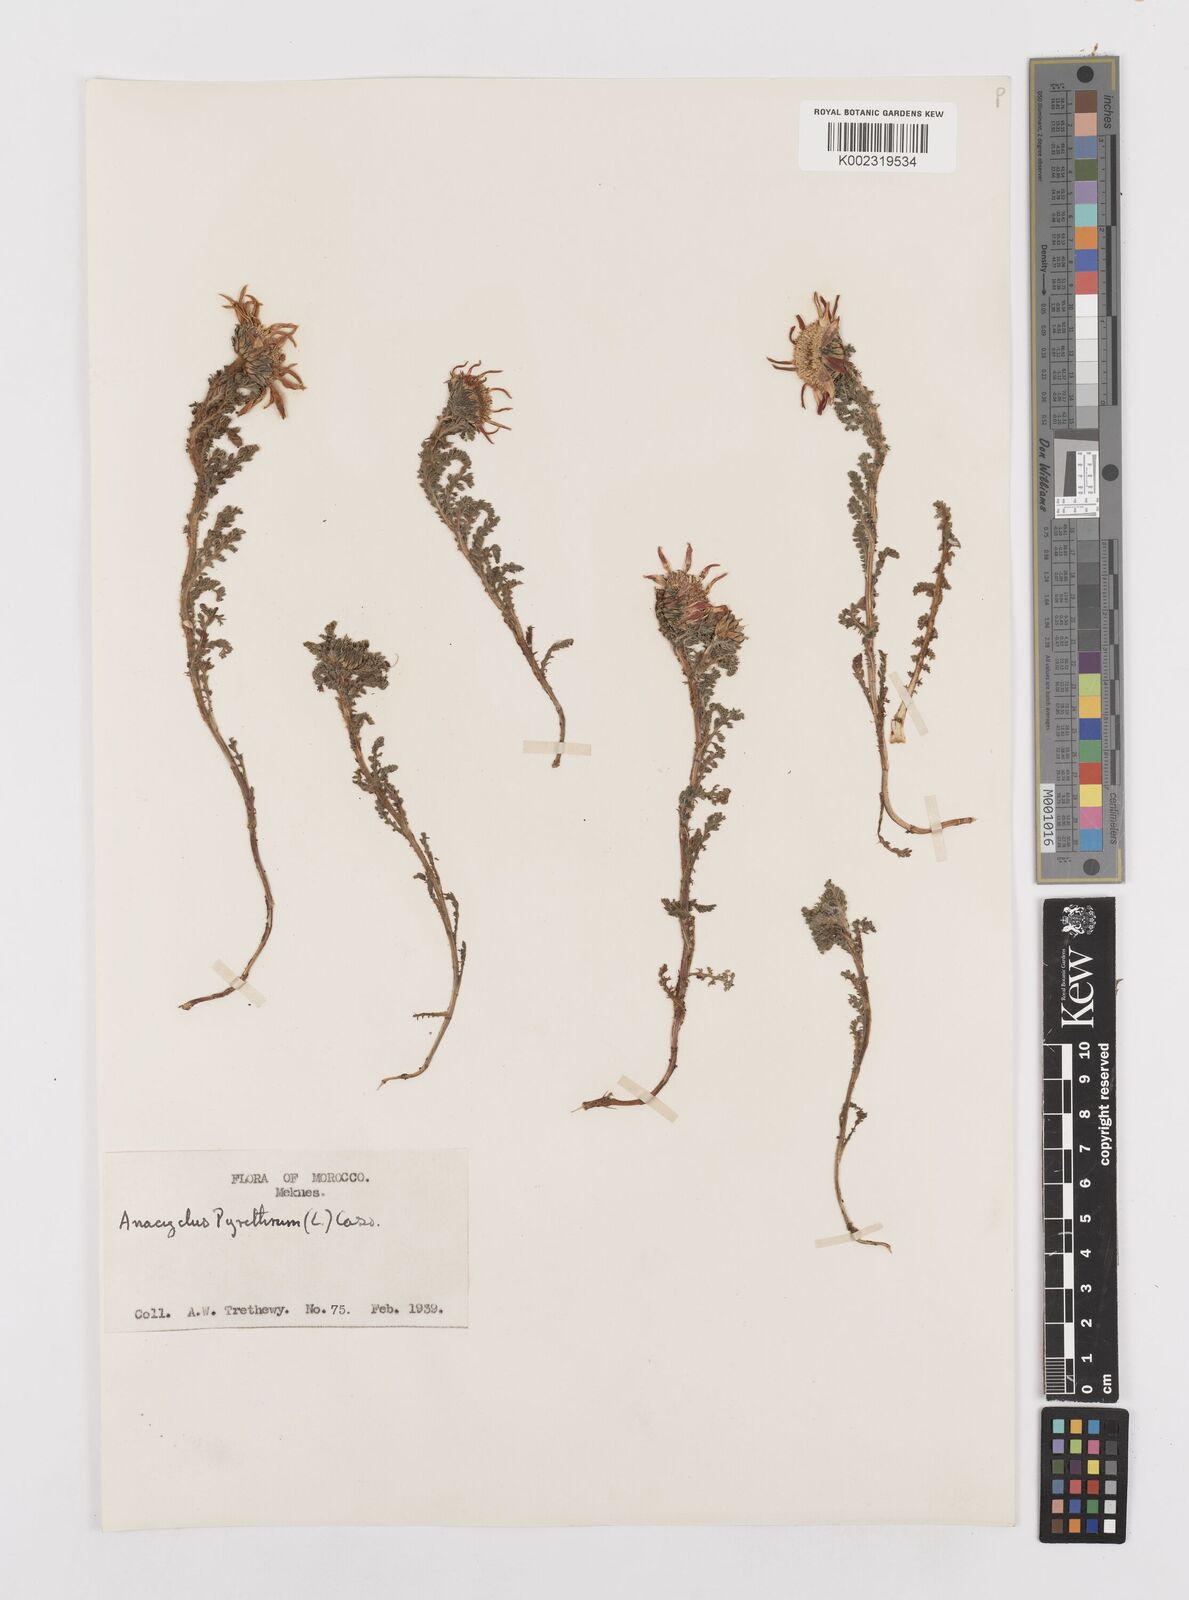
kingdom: Plantae
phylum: Tracheophyta
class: Magnoliopsida
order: Asterales
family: Asteraceae
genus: Anacyclus
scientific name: Anacyclus pyrethrum
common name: Mt. atlas daisy
